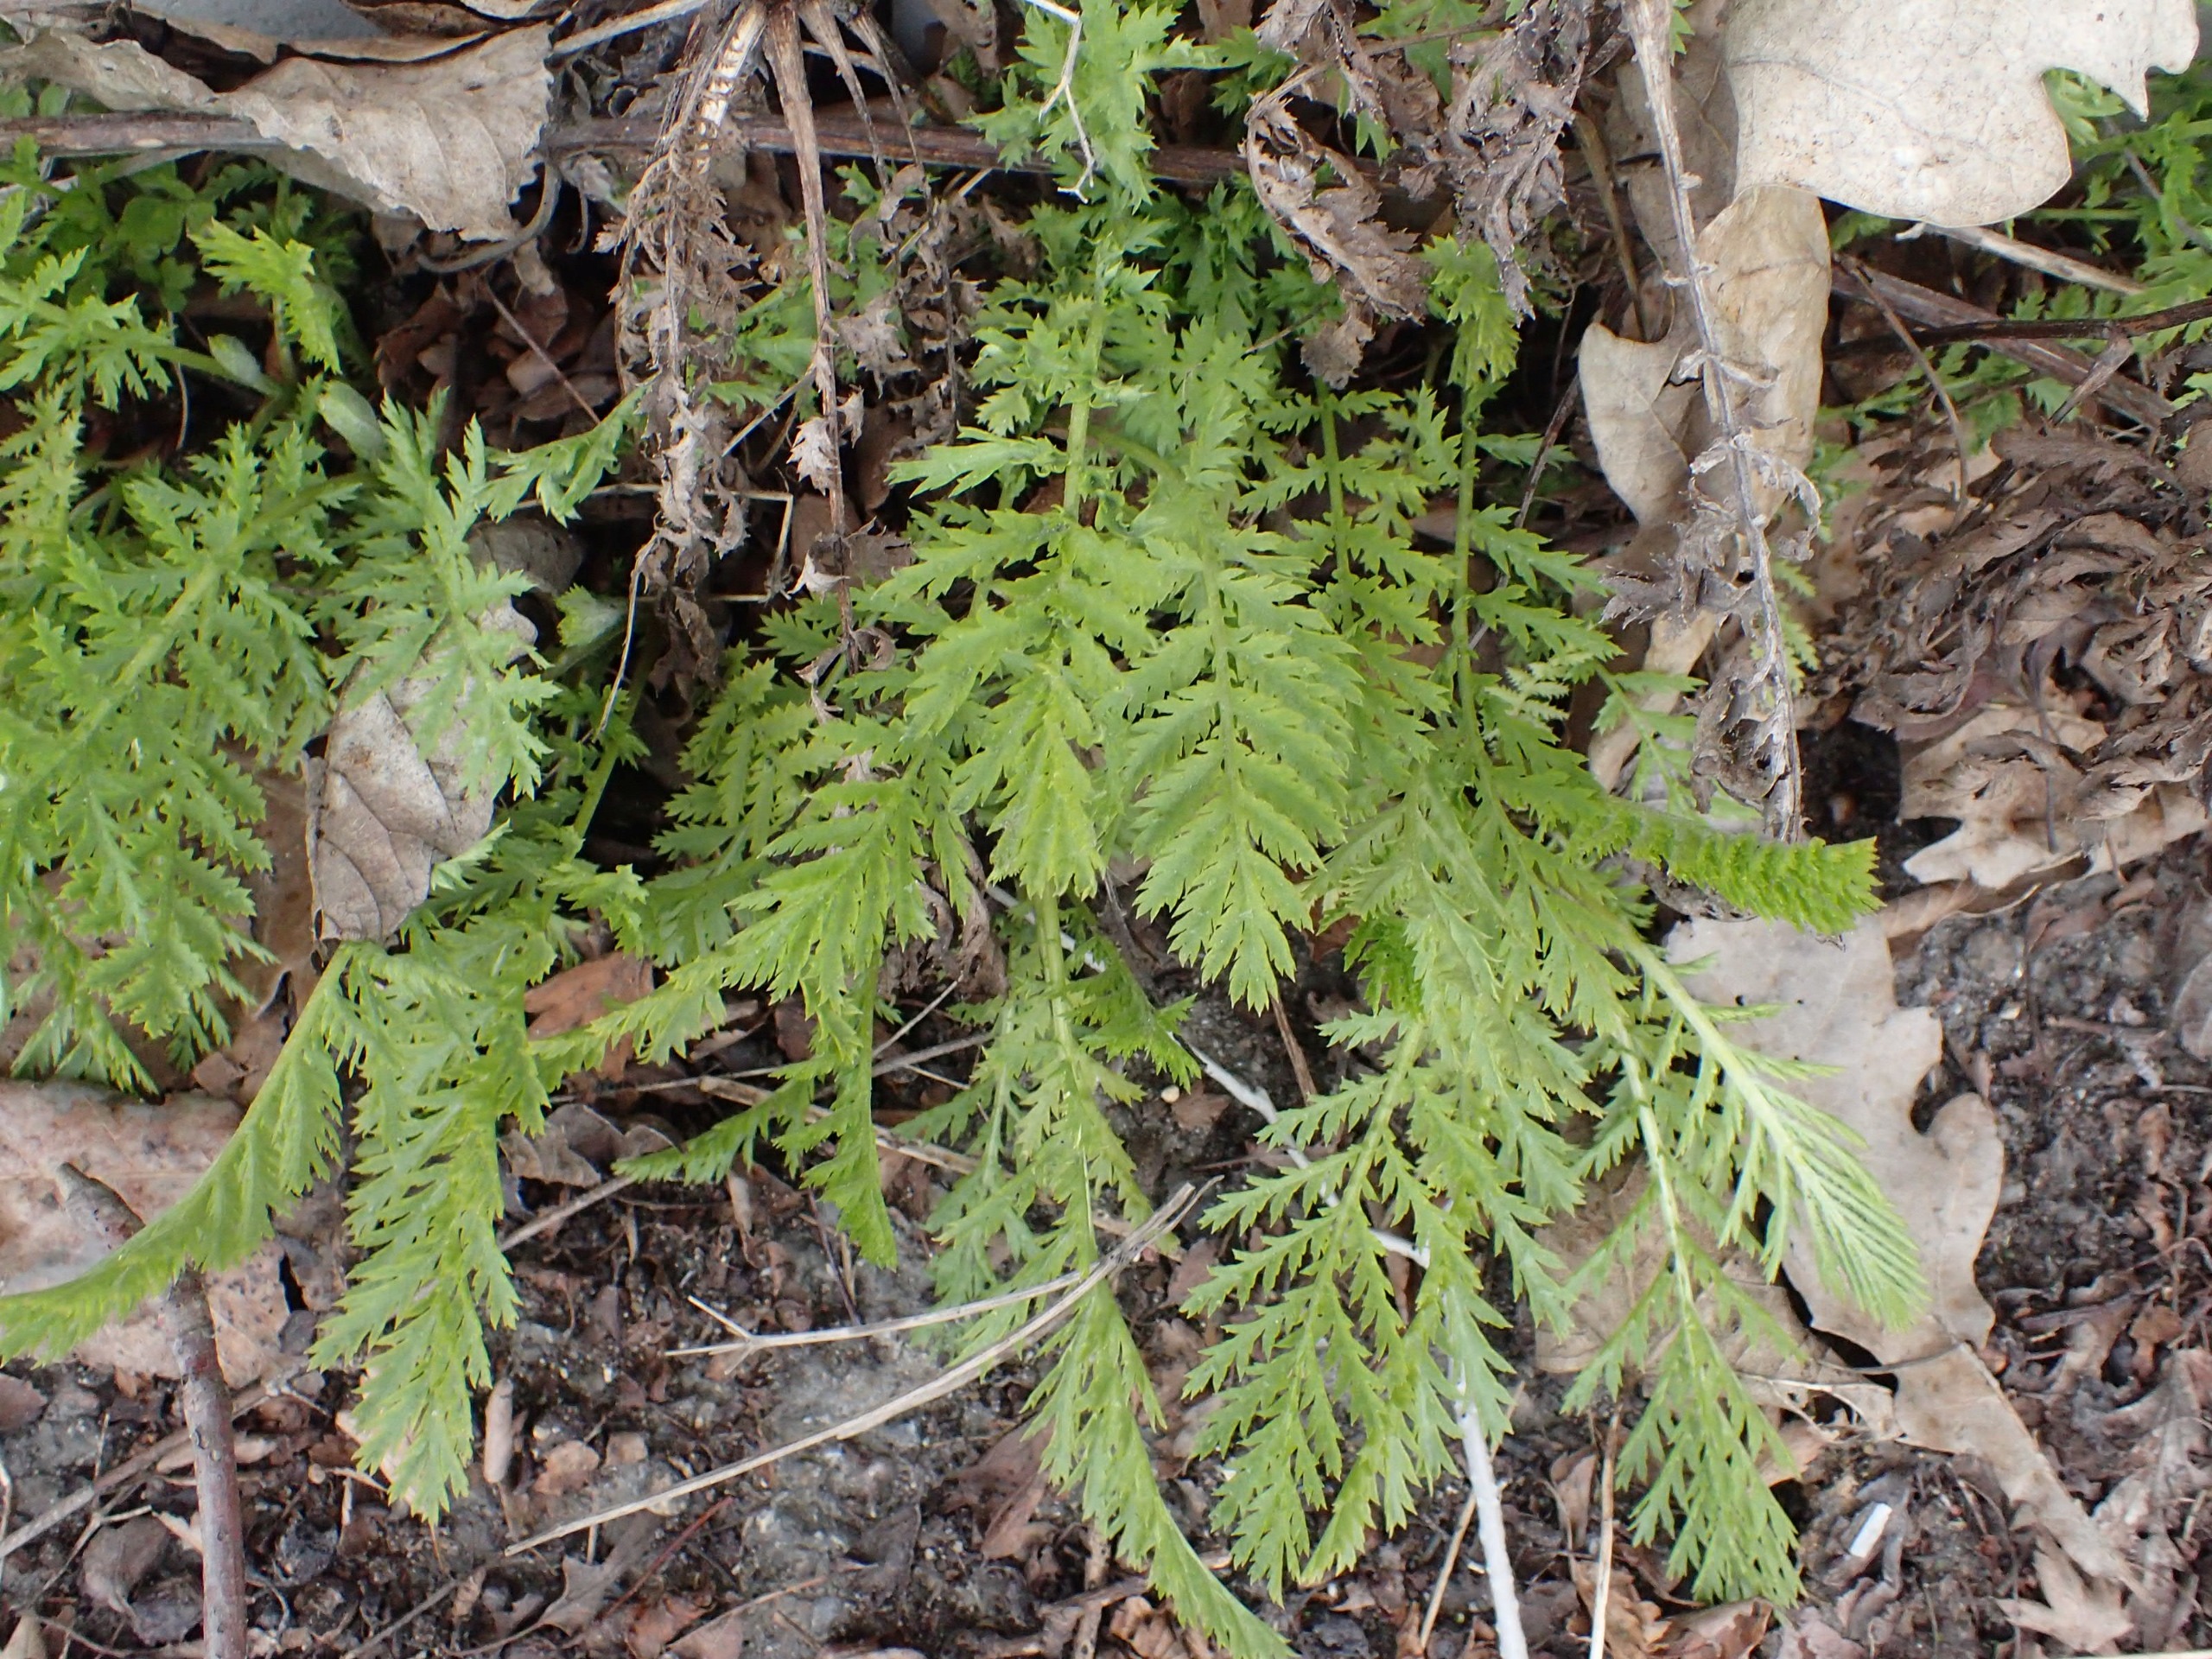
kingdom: Plantae
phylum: Tracheophyta
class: Magnoliopsida
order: Asterales
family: Asteraceae
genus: Tanacetum
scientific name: Tanacetum vulgare
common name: Rejnfan
